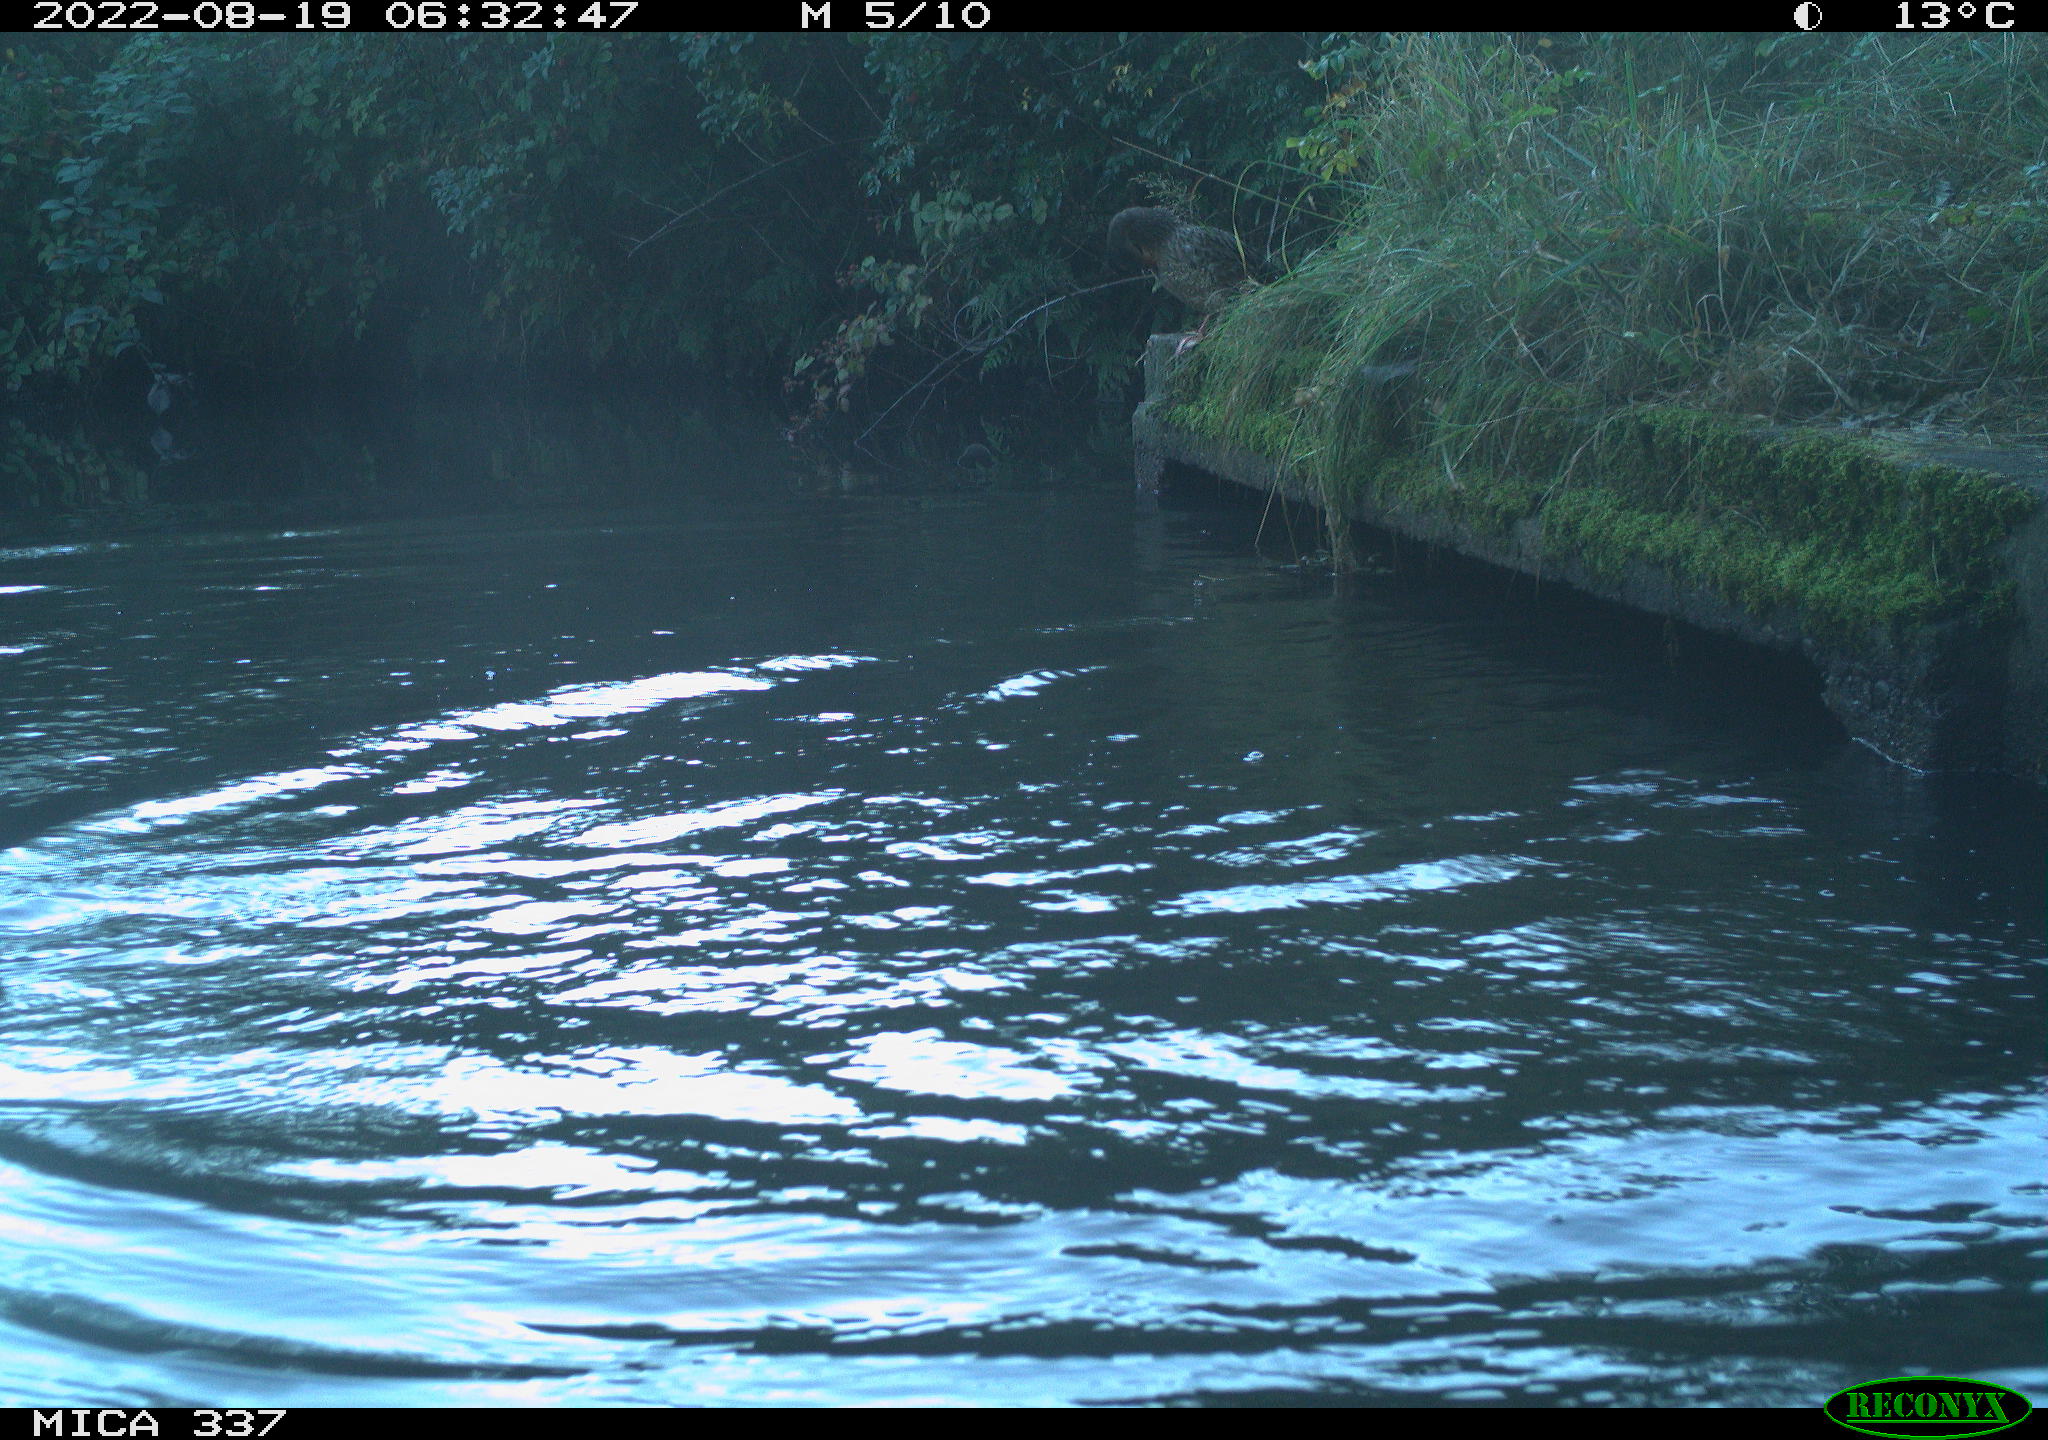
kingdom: Animalia
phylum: Chordata
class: Aves
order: Anseriformes
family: Anatidae
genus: Anas
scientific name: Anas platyrhynchos
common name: Mallard
